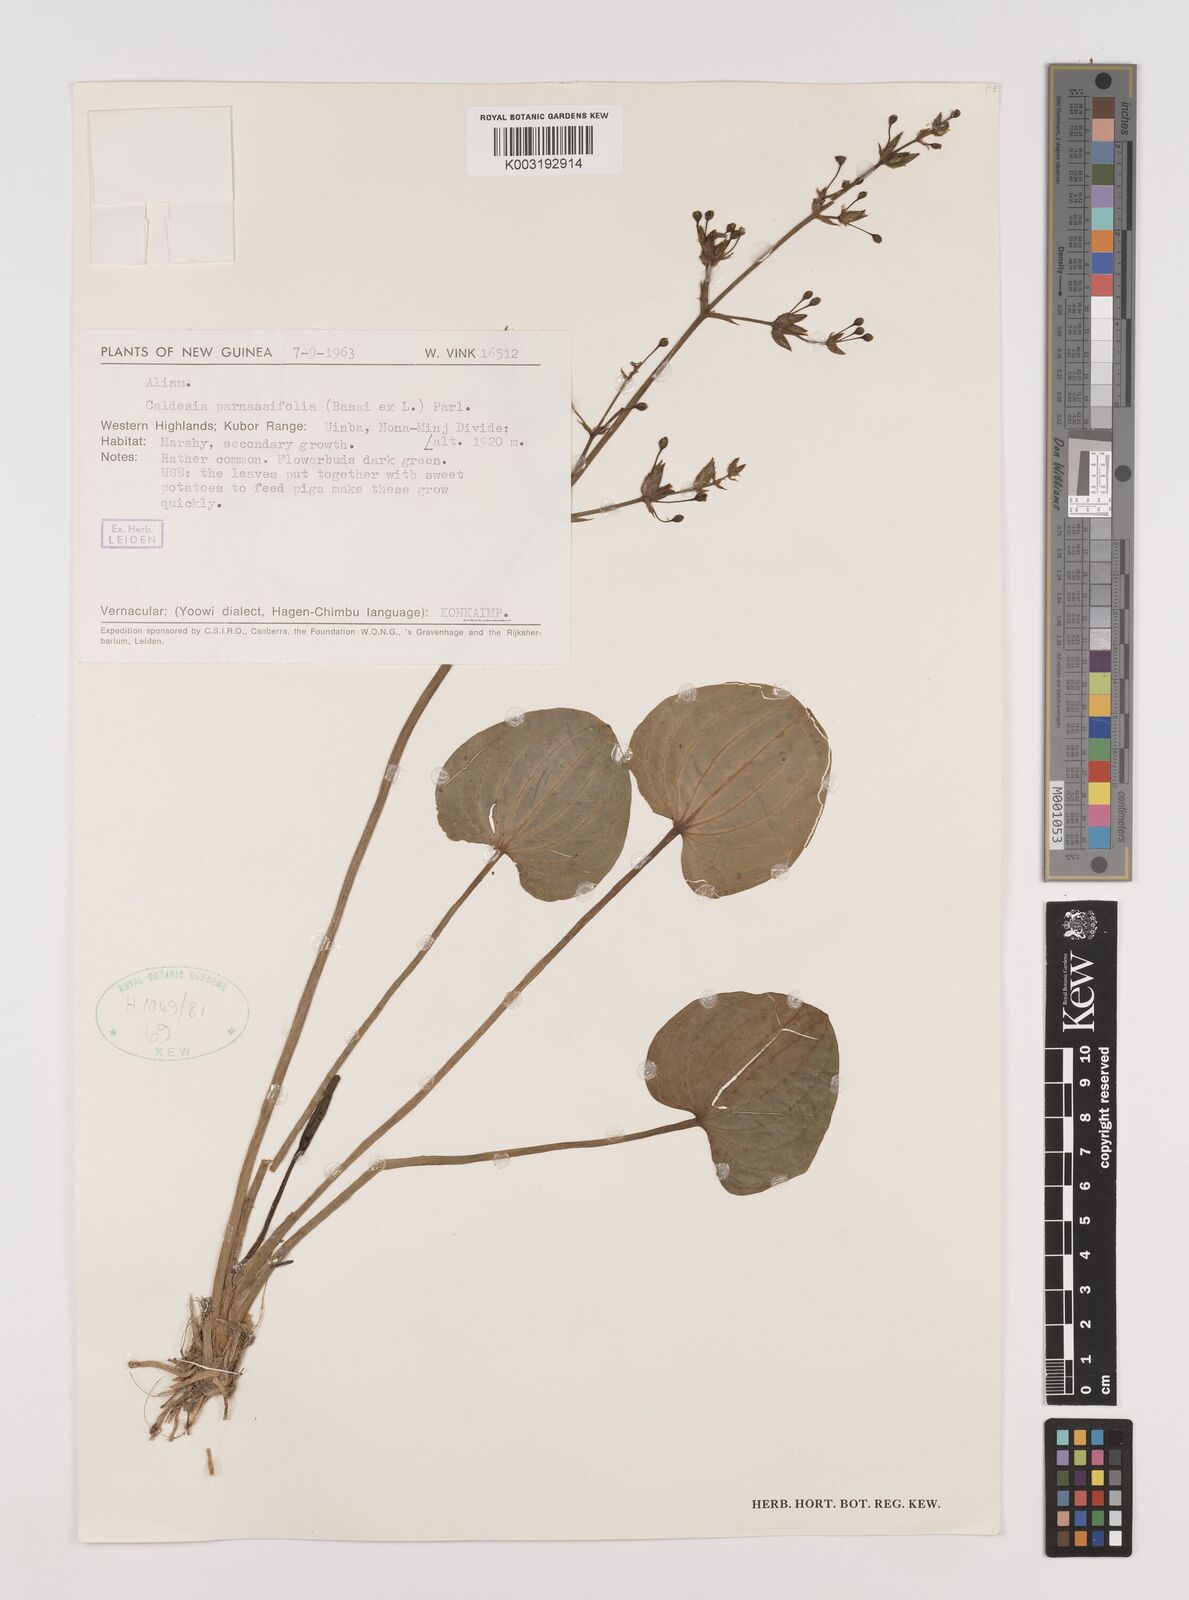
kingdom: Plantae
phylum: Tracheophyta
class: Liliopsida
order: Alismatales
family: Alismataceae
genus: Caldesia
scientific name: Caldesia parnassifolia
